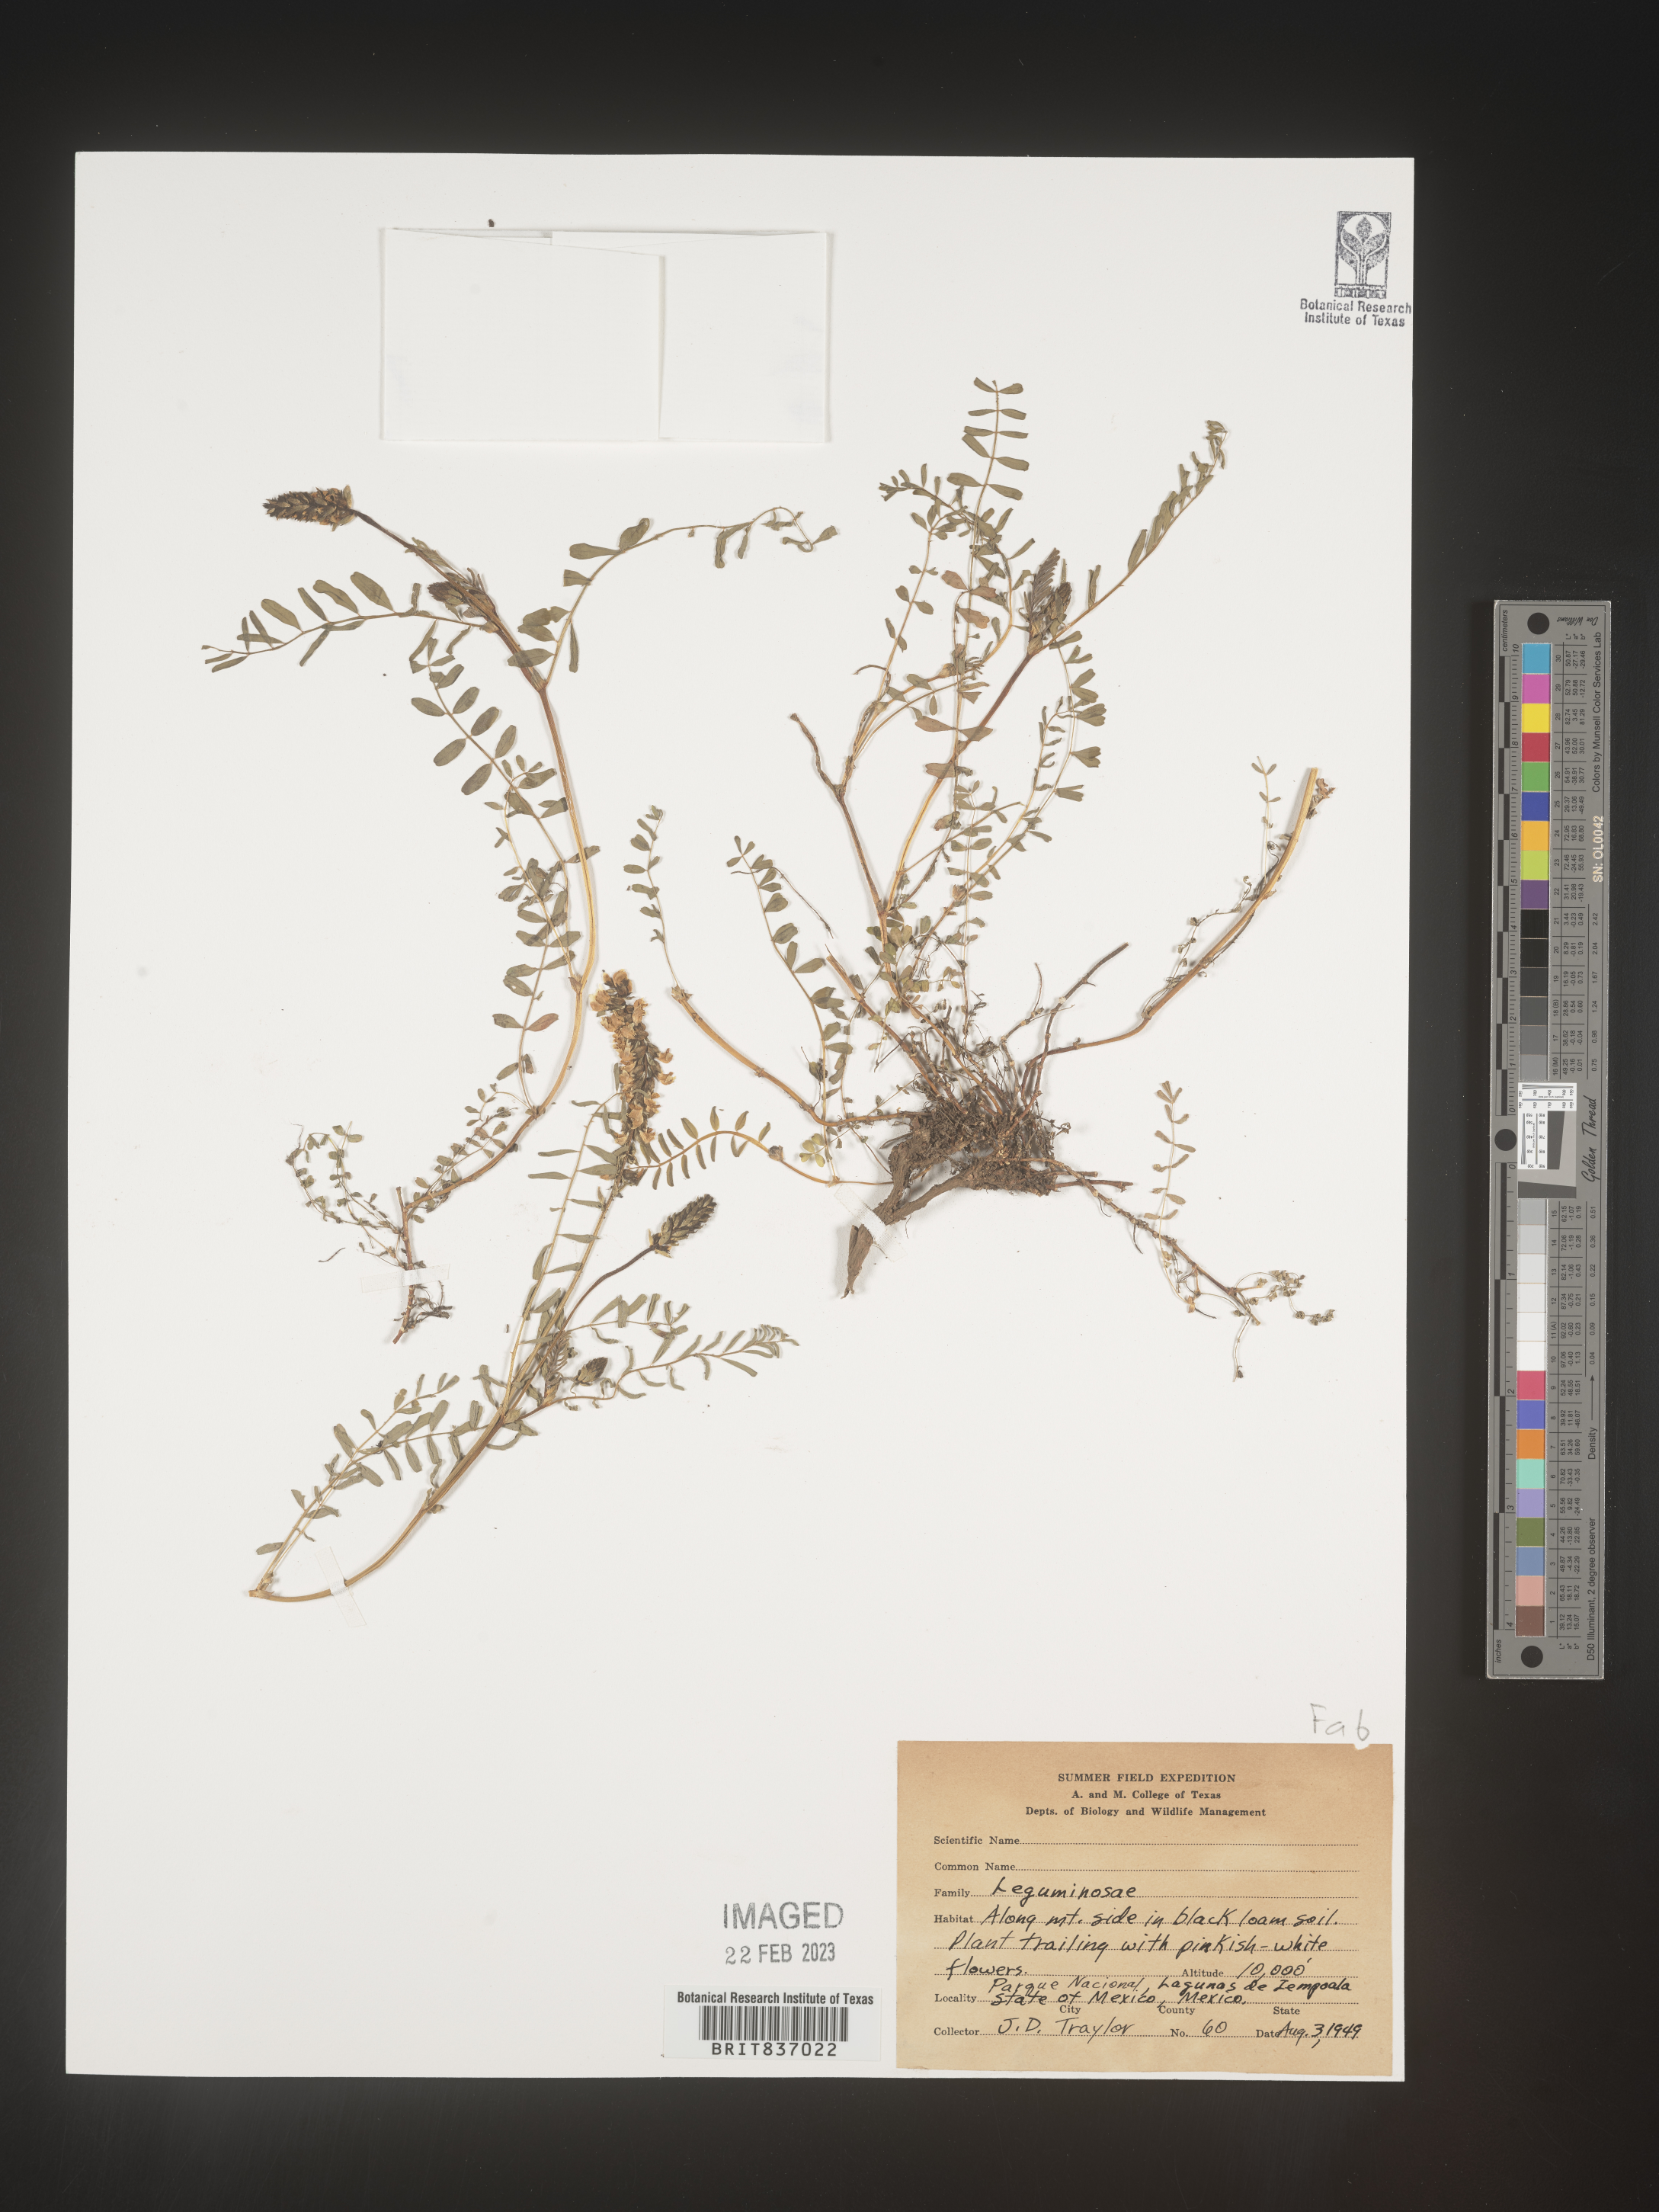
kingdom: Plantae
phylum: Tracheophyta
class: Magnoliopsida
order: Fabales
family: Fabaceae
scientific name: Fabaceae
